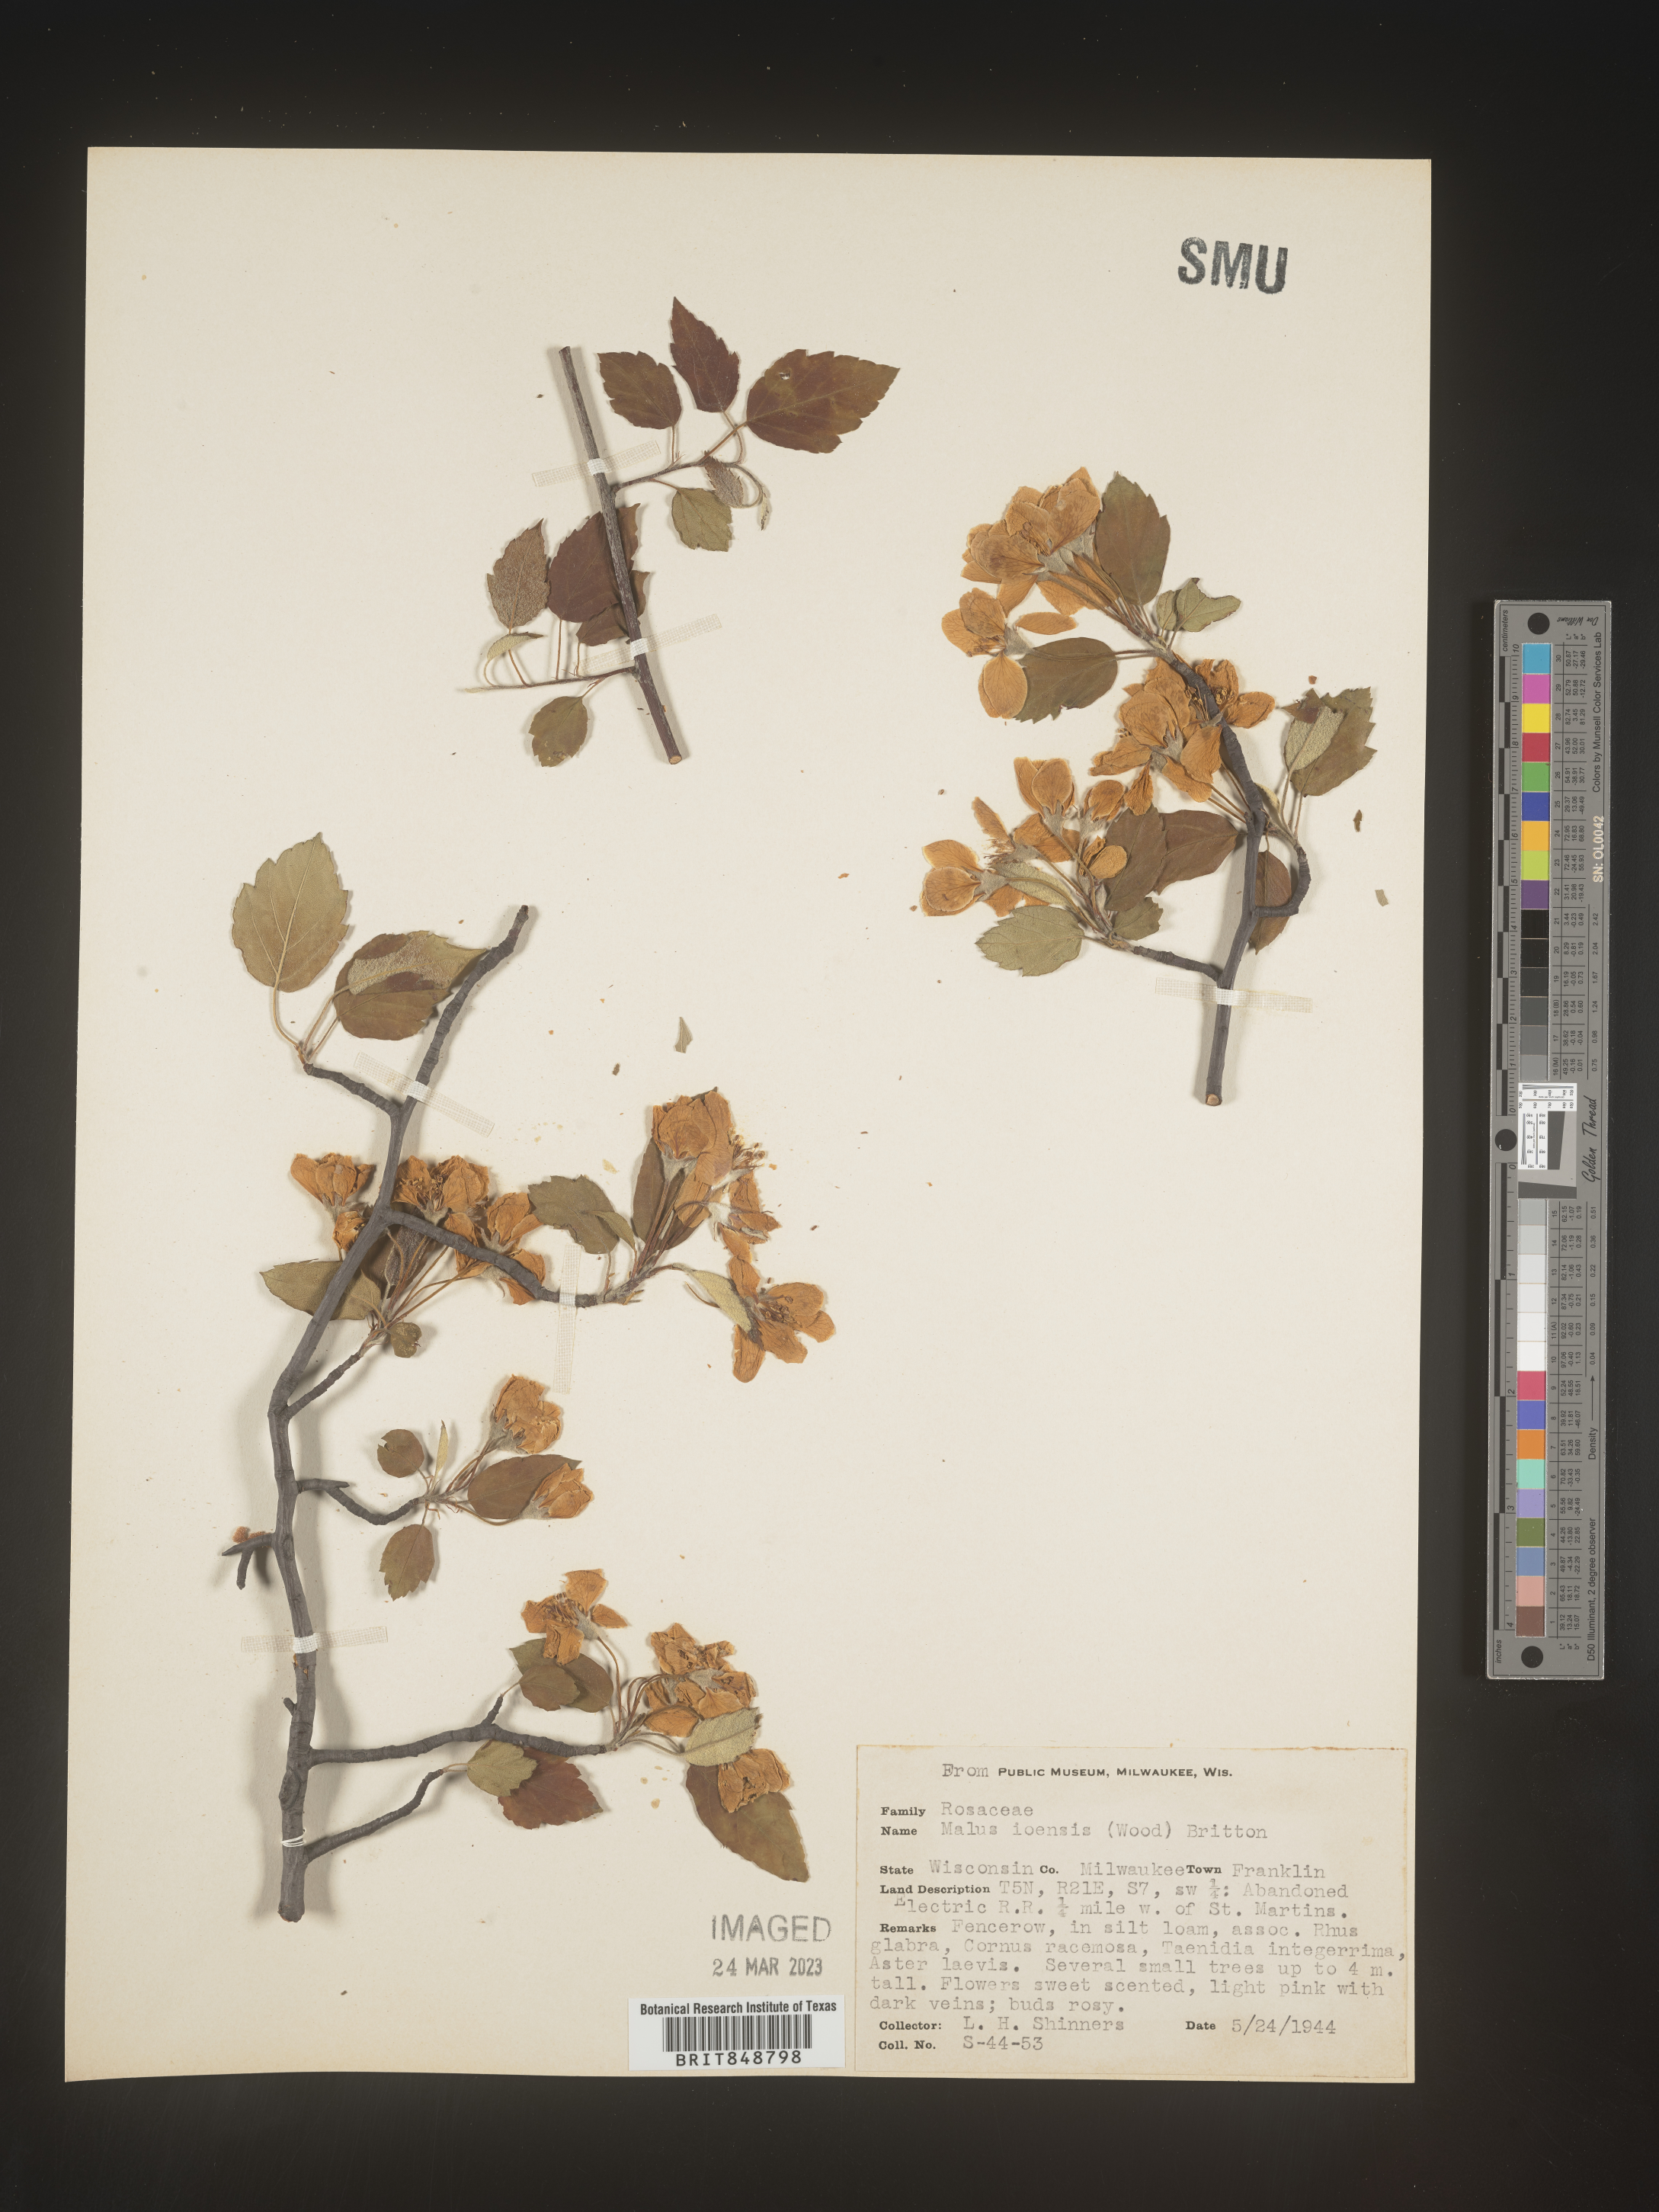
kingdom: Plantae
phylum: Tracheophyta
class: Magnoliopsida
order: Rosales
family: Rosaceae
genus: Malus
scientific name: Malus ioensis
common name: Iowa crab apple
